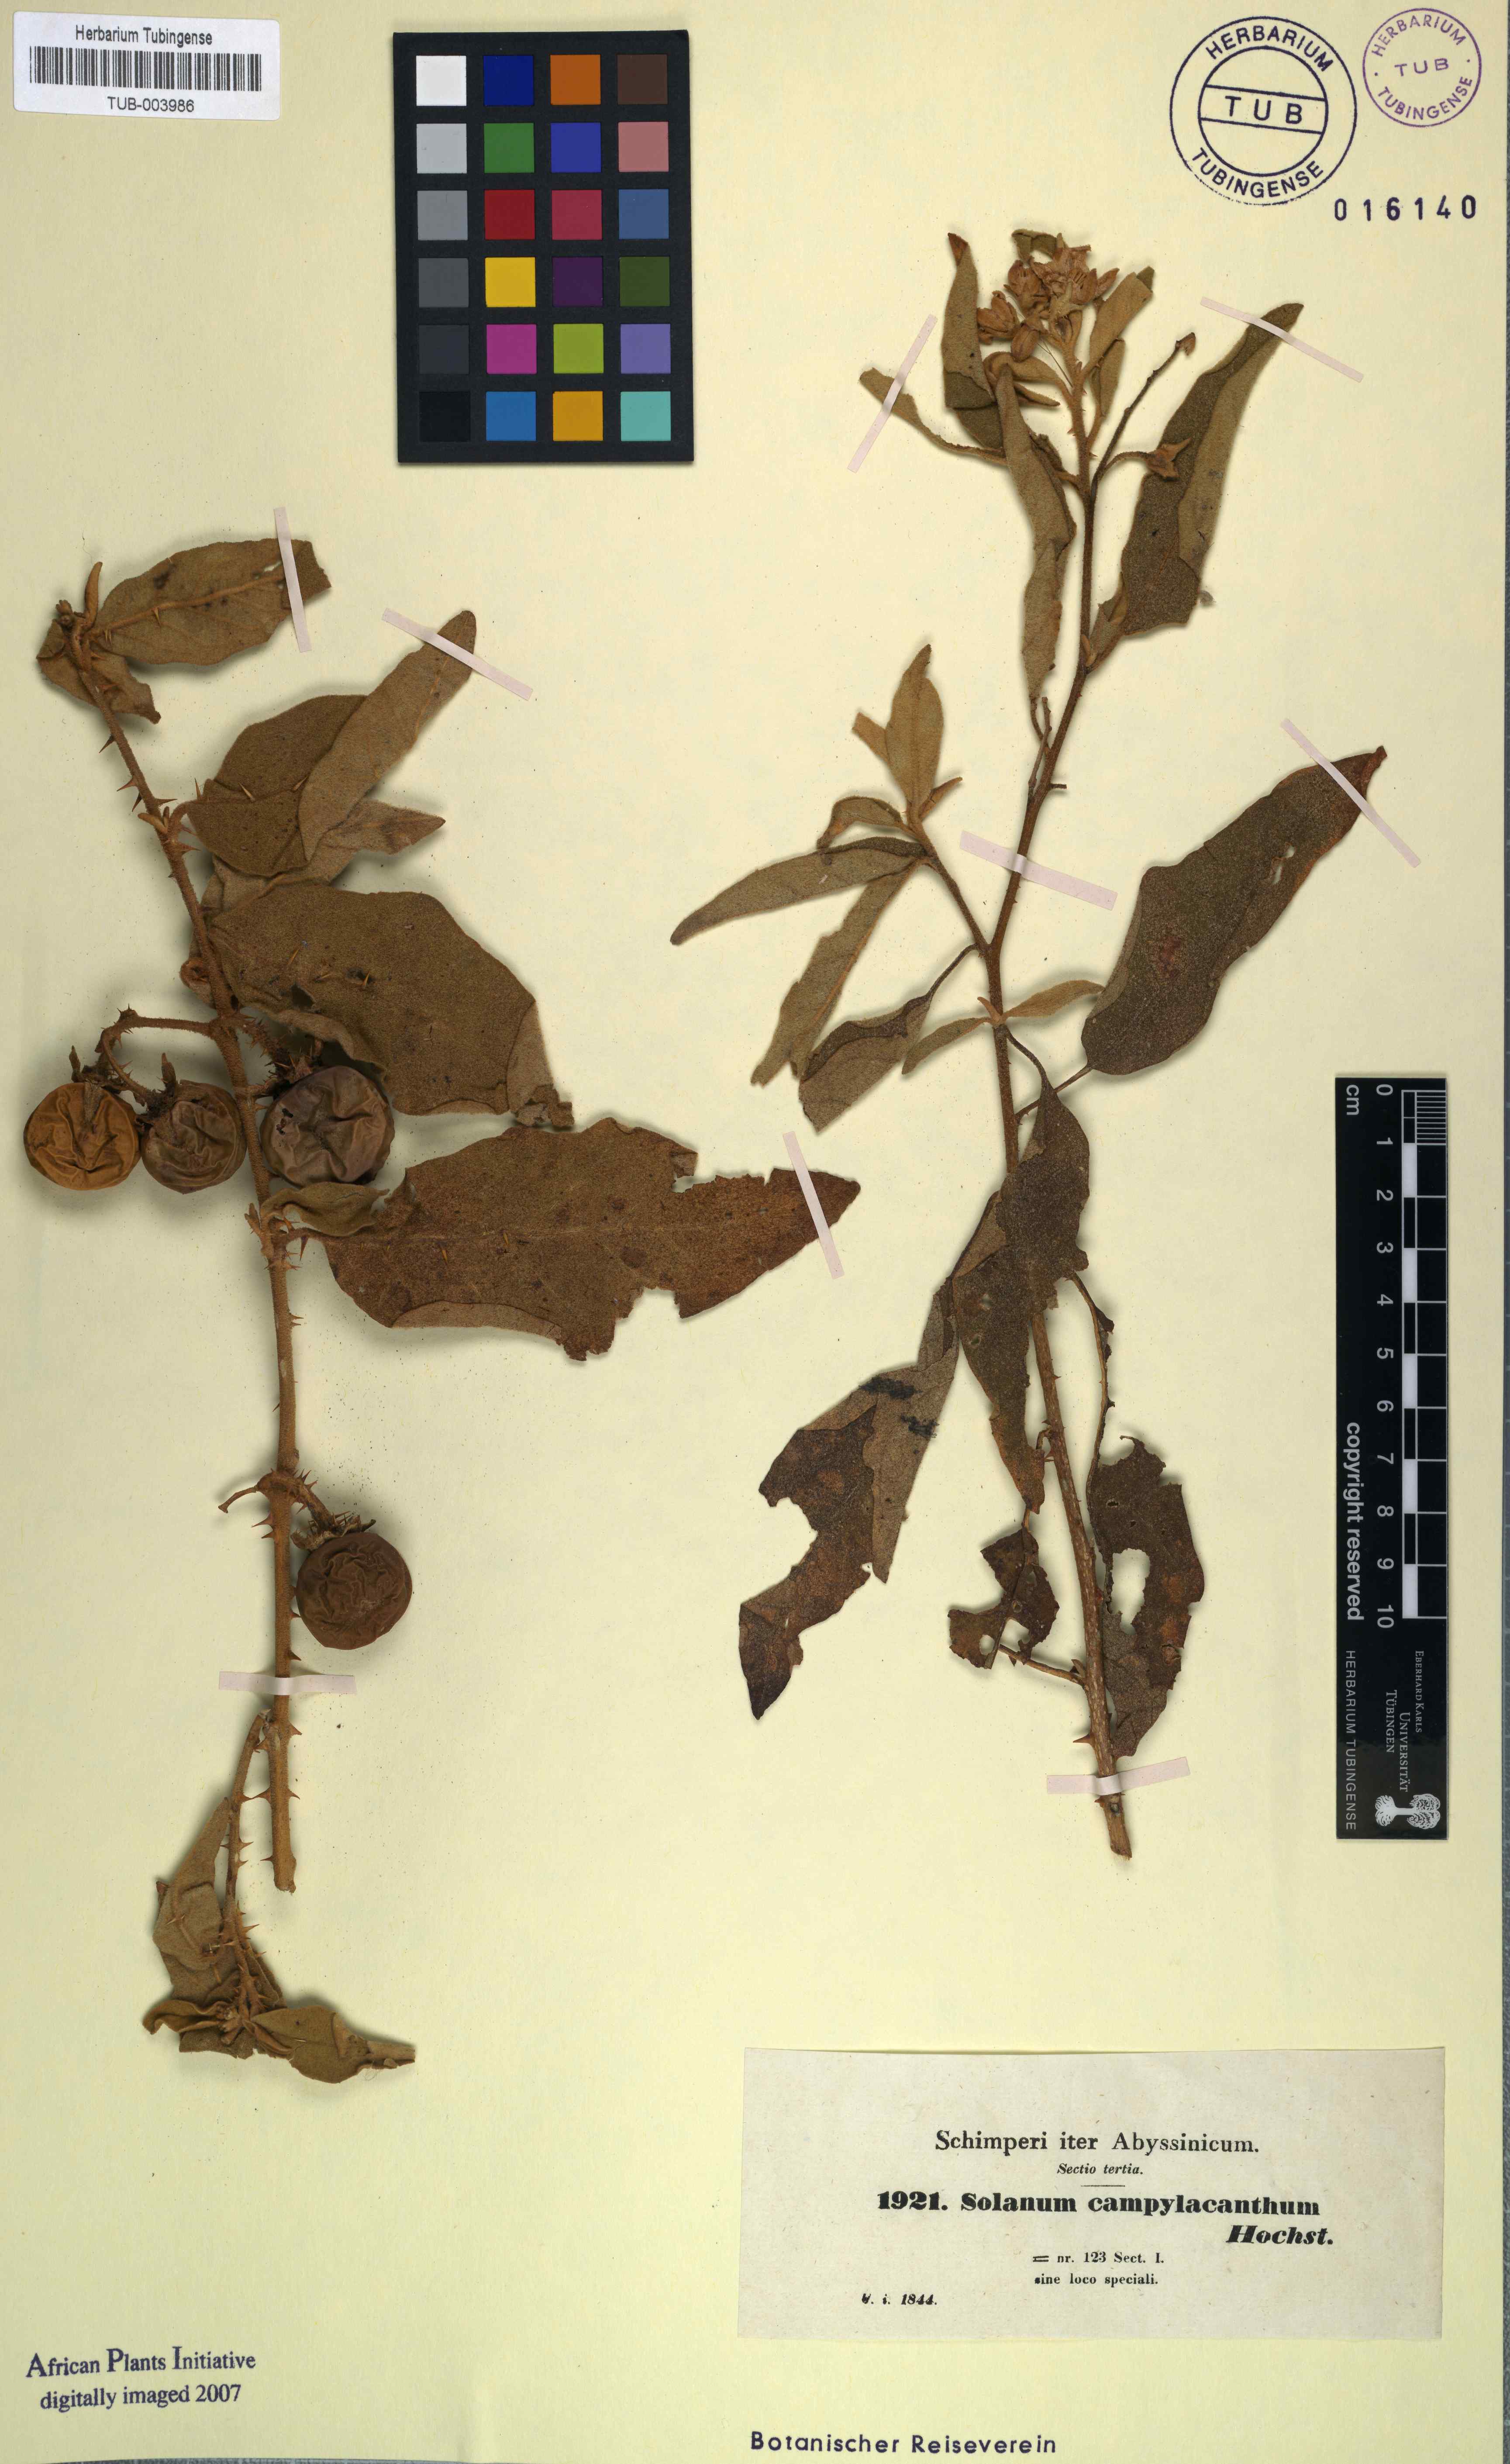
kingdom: Plantae
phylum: Tracheophyta
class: Magnoliopsida
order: Solanales
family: Solanaceae
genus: Solanum
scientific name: Solanum campylacanthum
